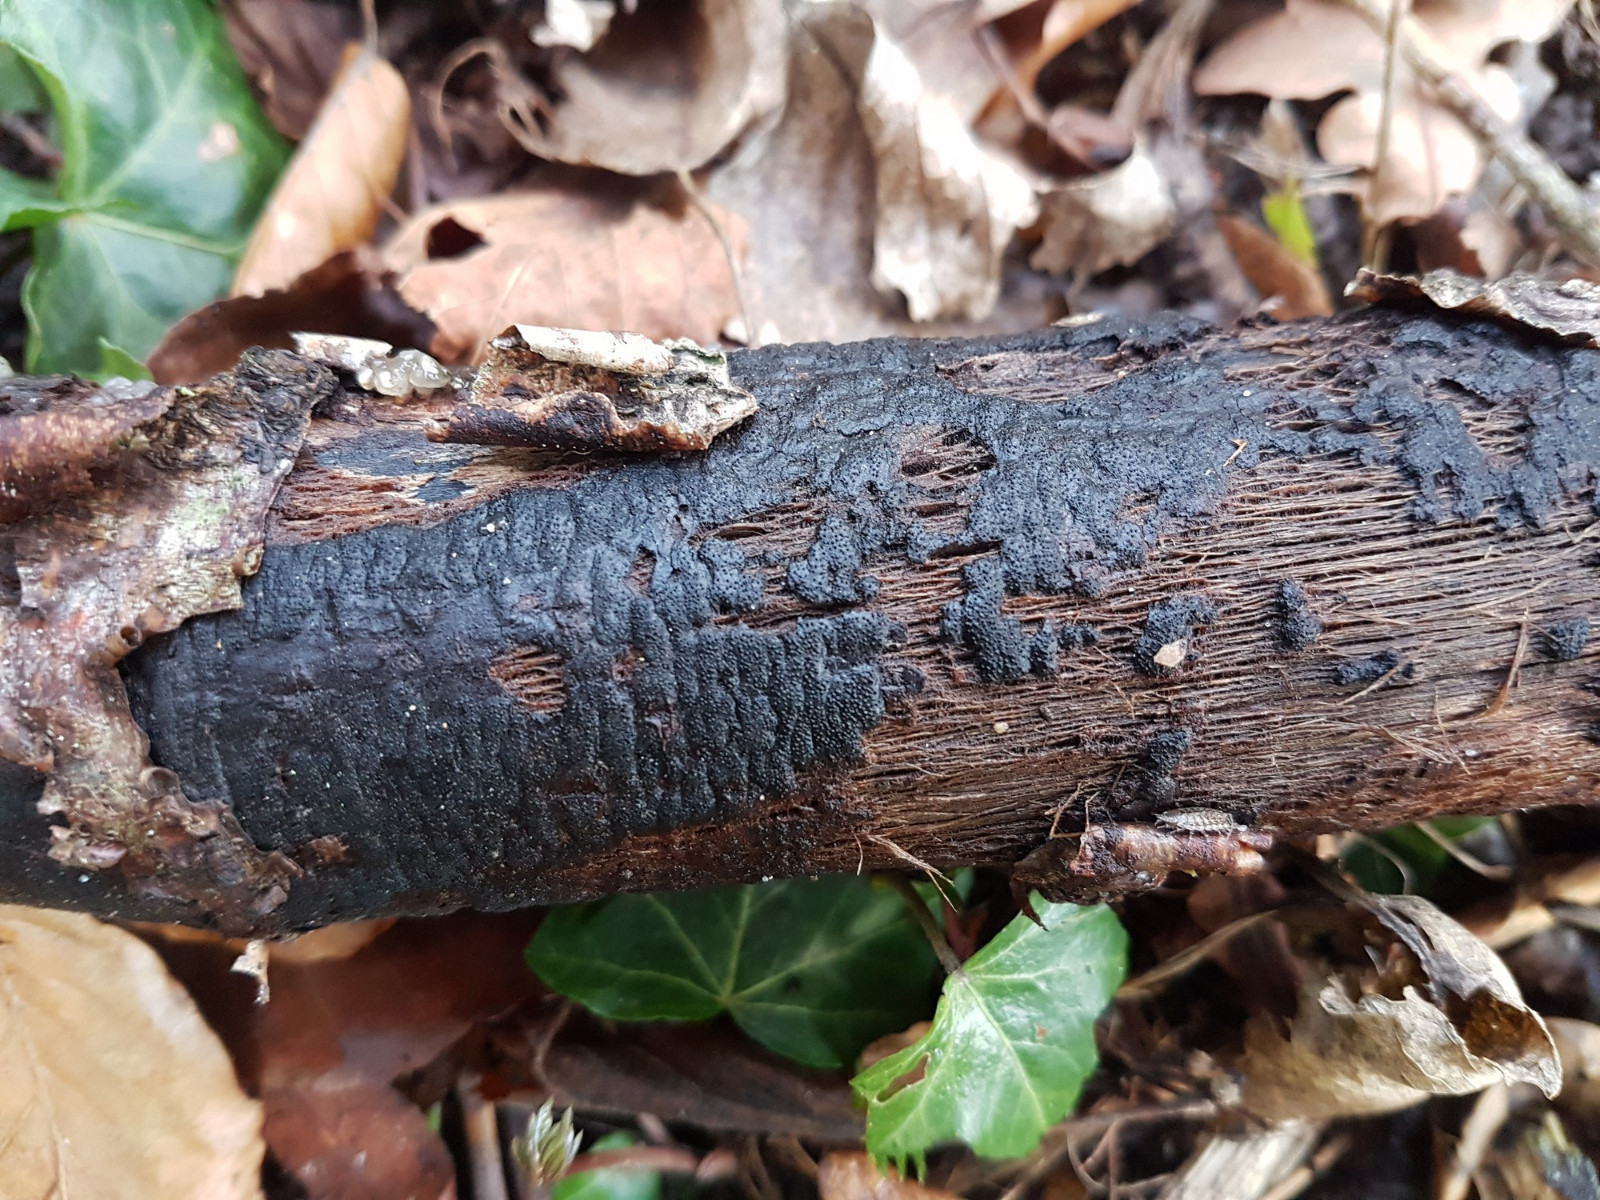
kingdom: Fungi
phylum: Ascomycota
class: Sordariomycetes
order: Xylariales
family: Diatrypaceae
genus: Eutypa
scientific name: Eutypa
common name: kulskorpe
